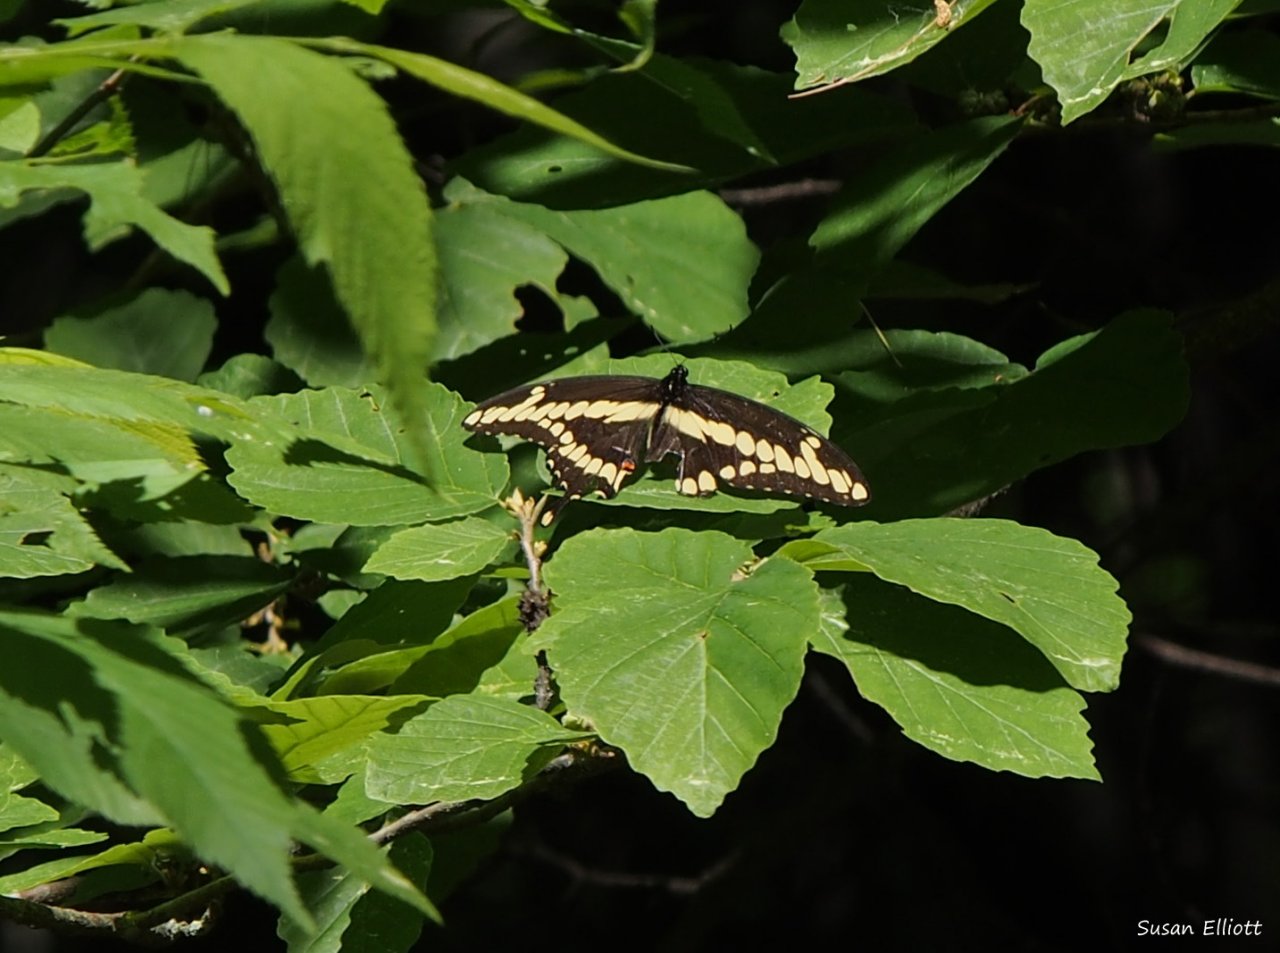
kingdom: Animalia
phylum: Arthropoda
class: Insecta
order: Lepidoptera
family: Papilionidae
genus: Papilio
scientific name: Papilio cresphontes
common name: Eastern Giant Swallowtail
